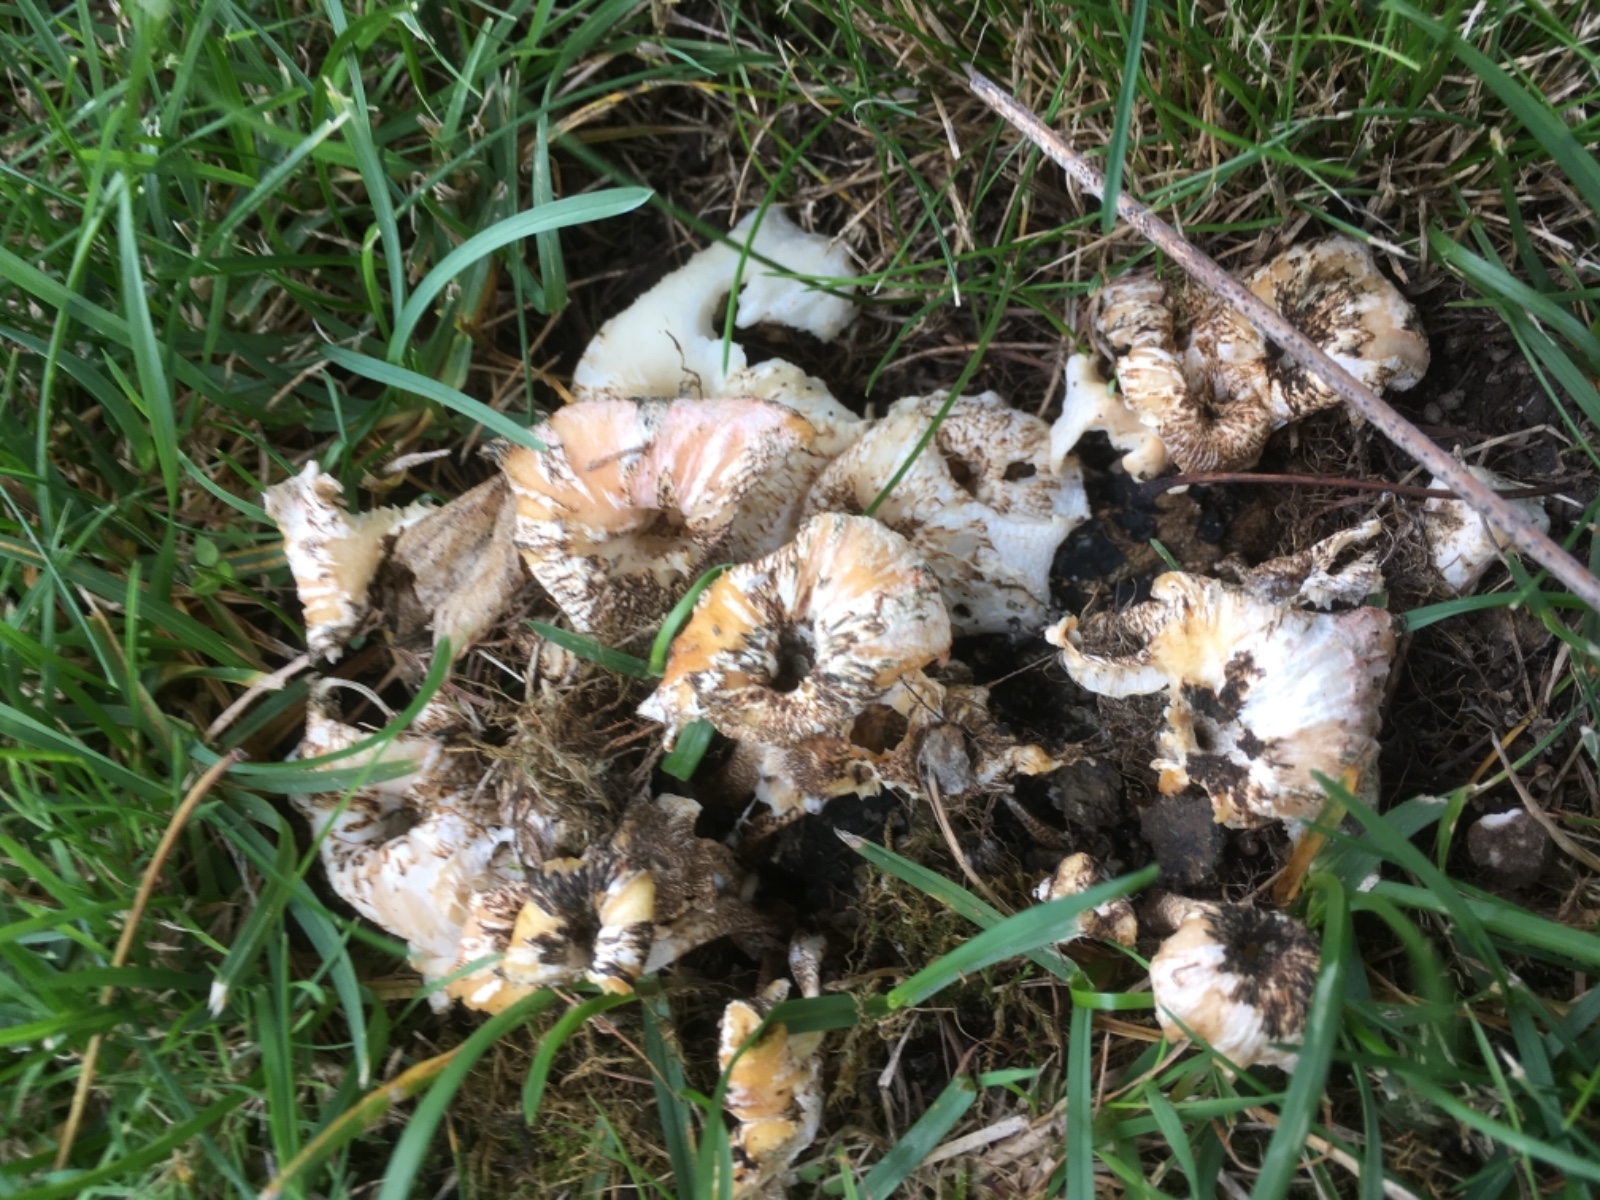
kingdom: Fungi
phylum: Basidiomycota
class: Agaricomycetes
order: Polyporales
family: Polyporaceae
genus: Lentinus
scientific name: Lentinus tigrinus
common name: tigerhat
